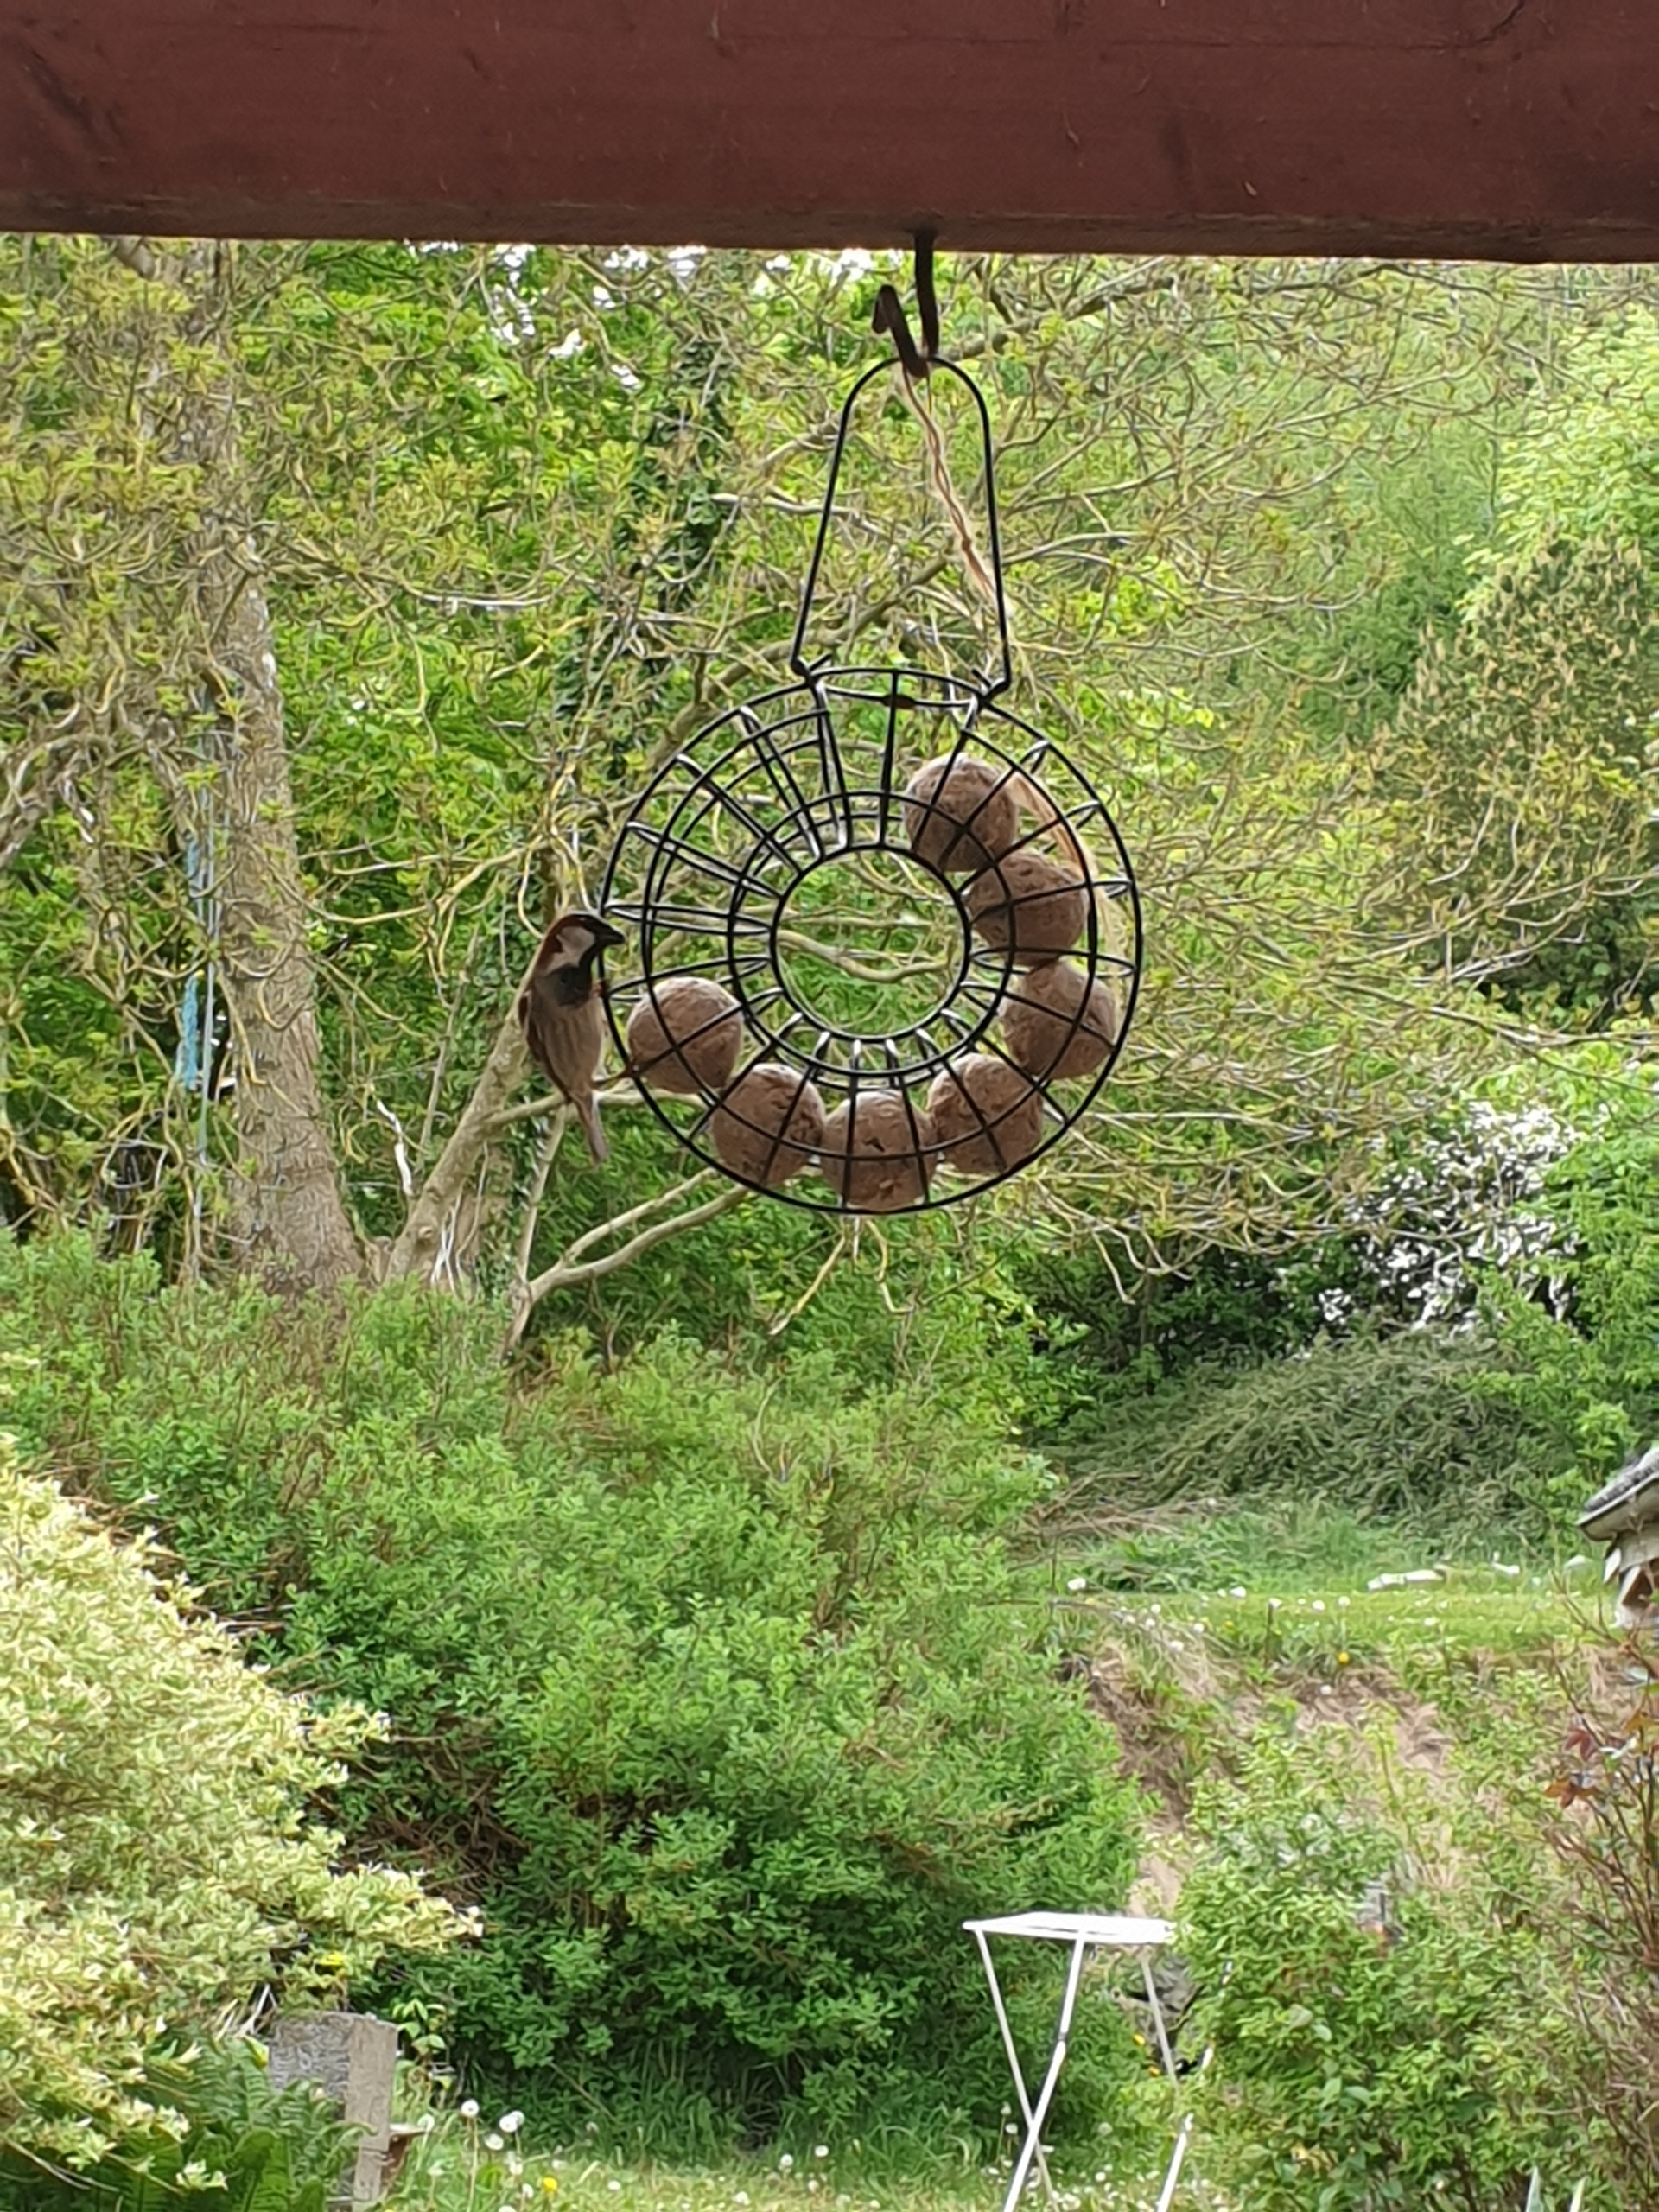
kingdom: Animalia
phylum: Chordata
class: Aves
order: Passeriformes
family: Passeridae
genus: Passer
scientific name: Passer domesticus
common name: Gråspurv
